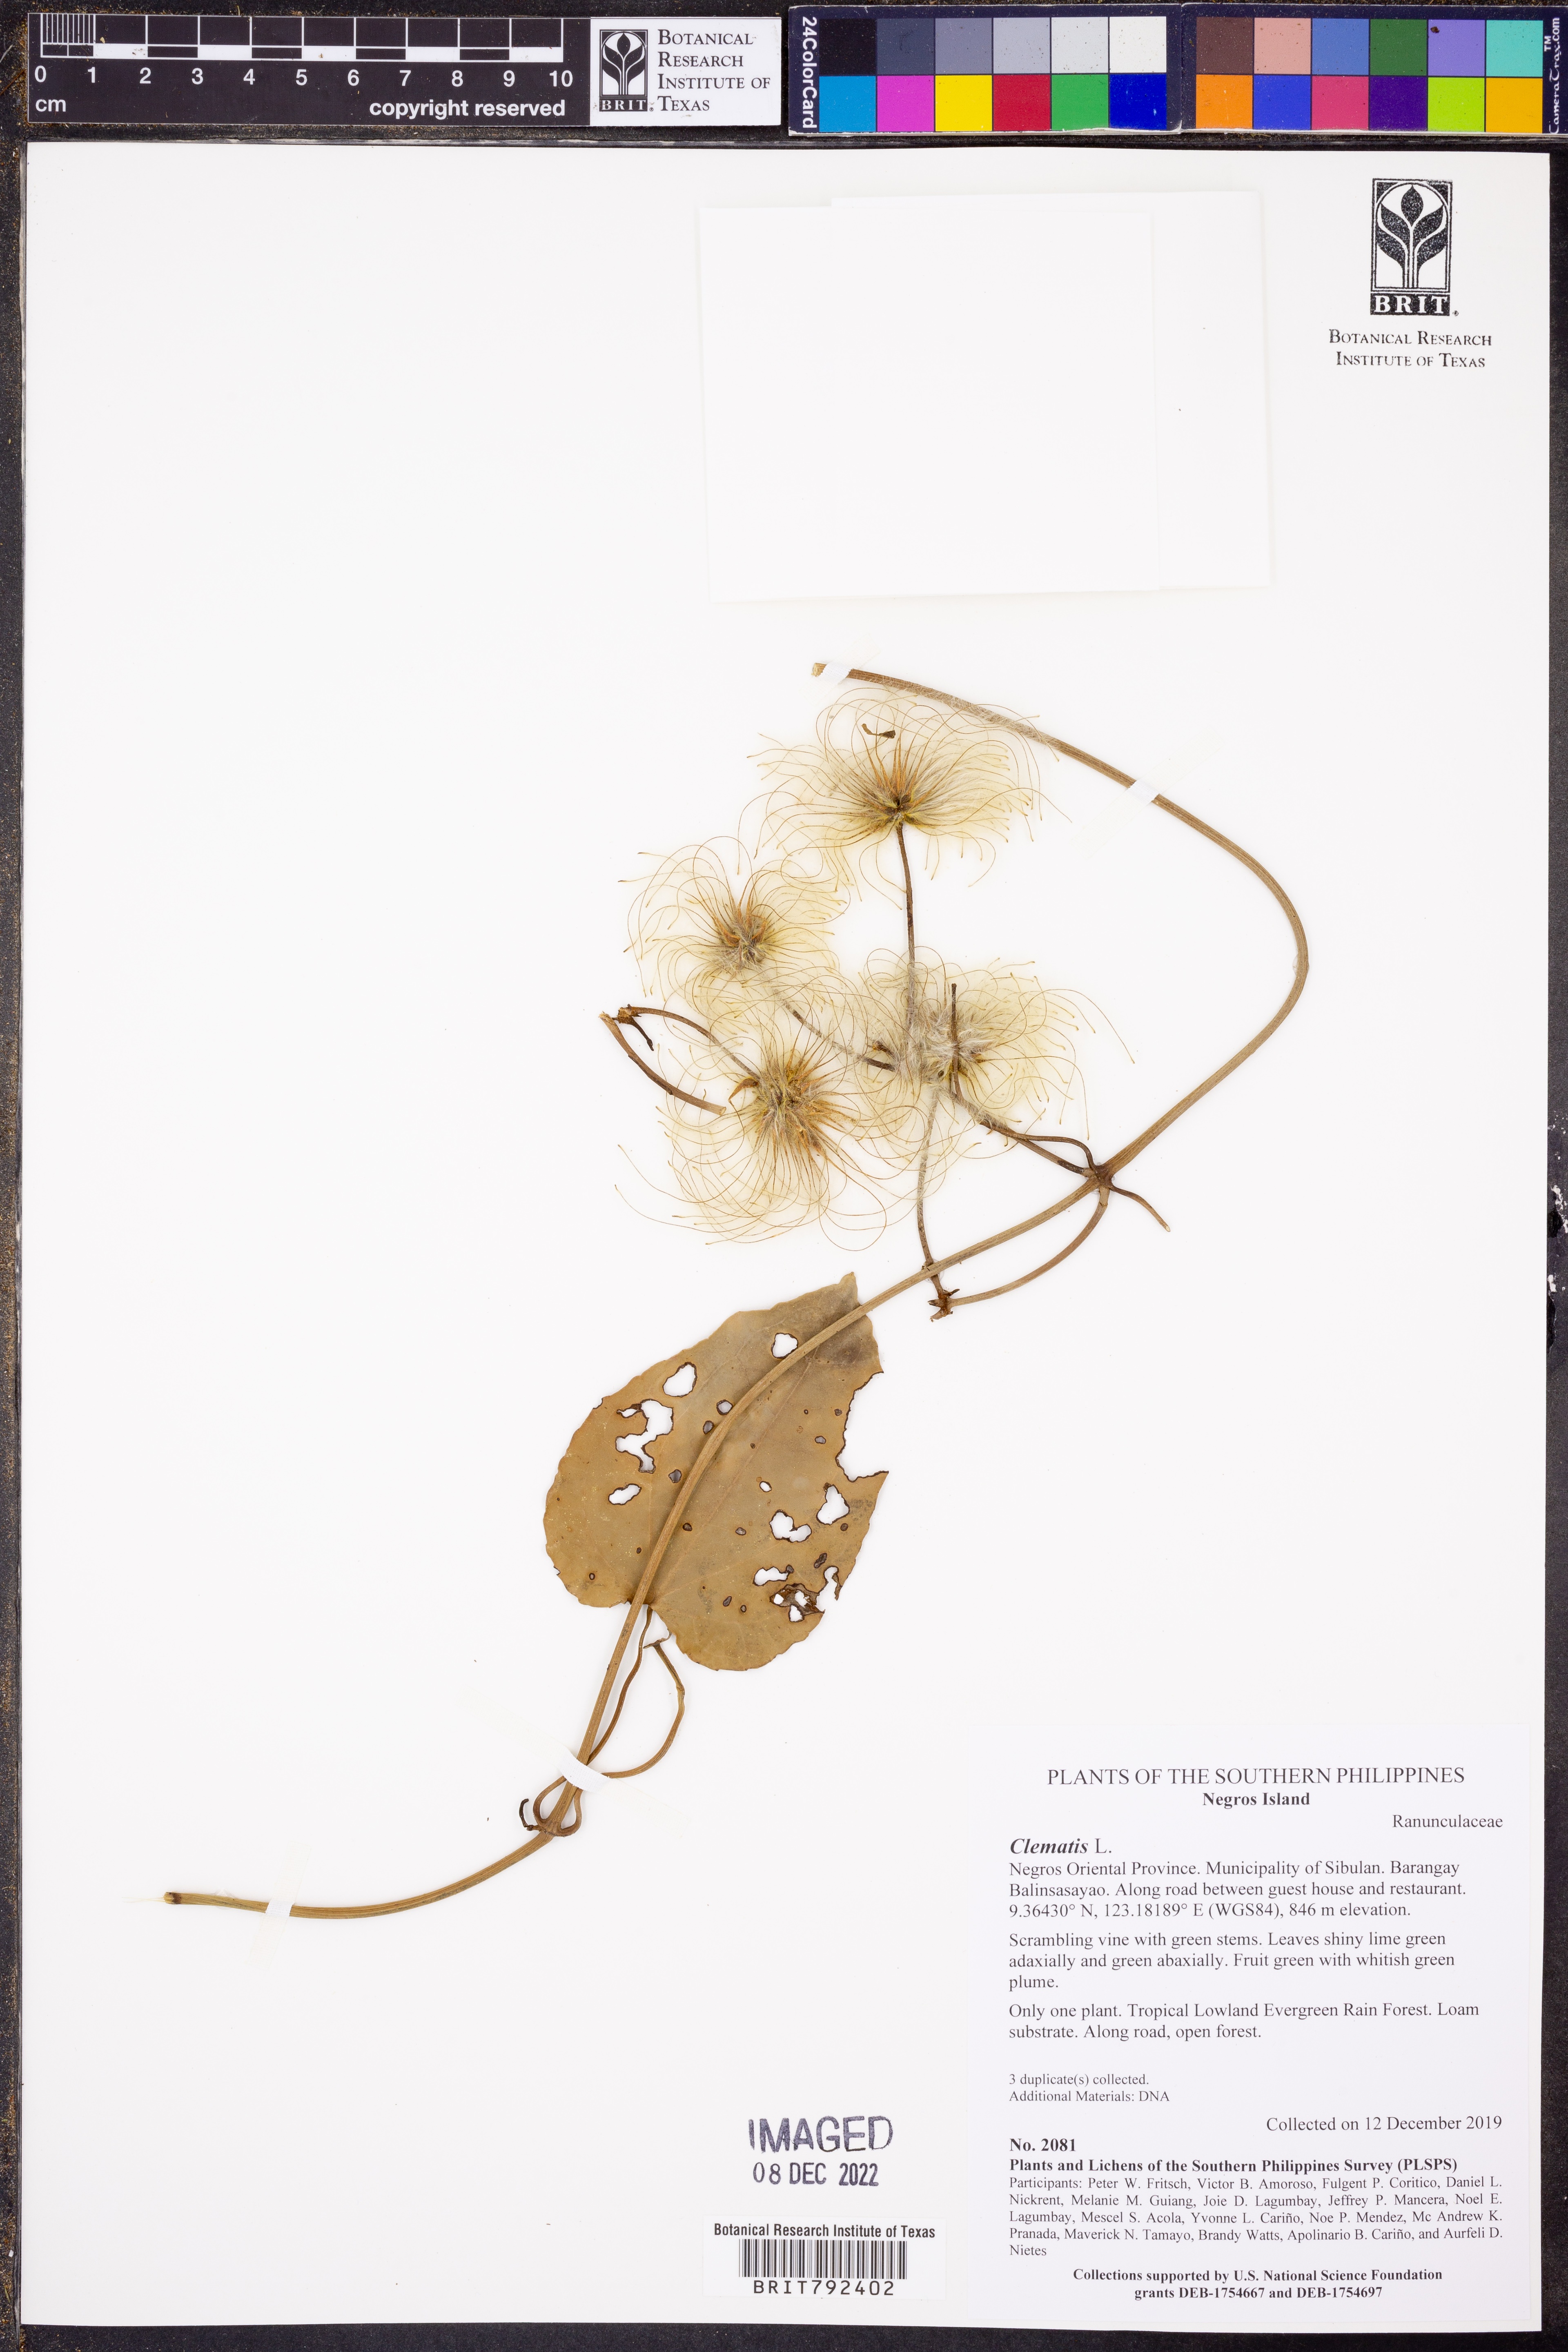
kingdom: Plantae
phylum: Tracheophyta
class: Magnoliopsida
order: Ranunculales
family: Ranunculaceae
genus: Clematis
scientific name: Clematis
